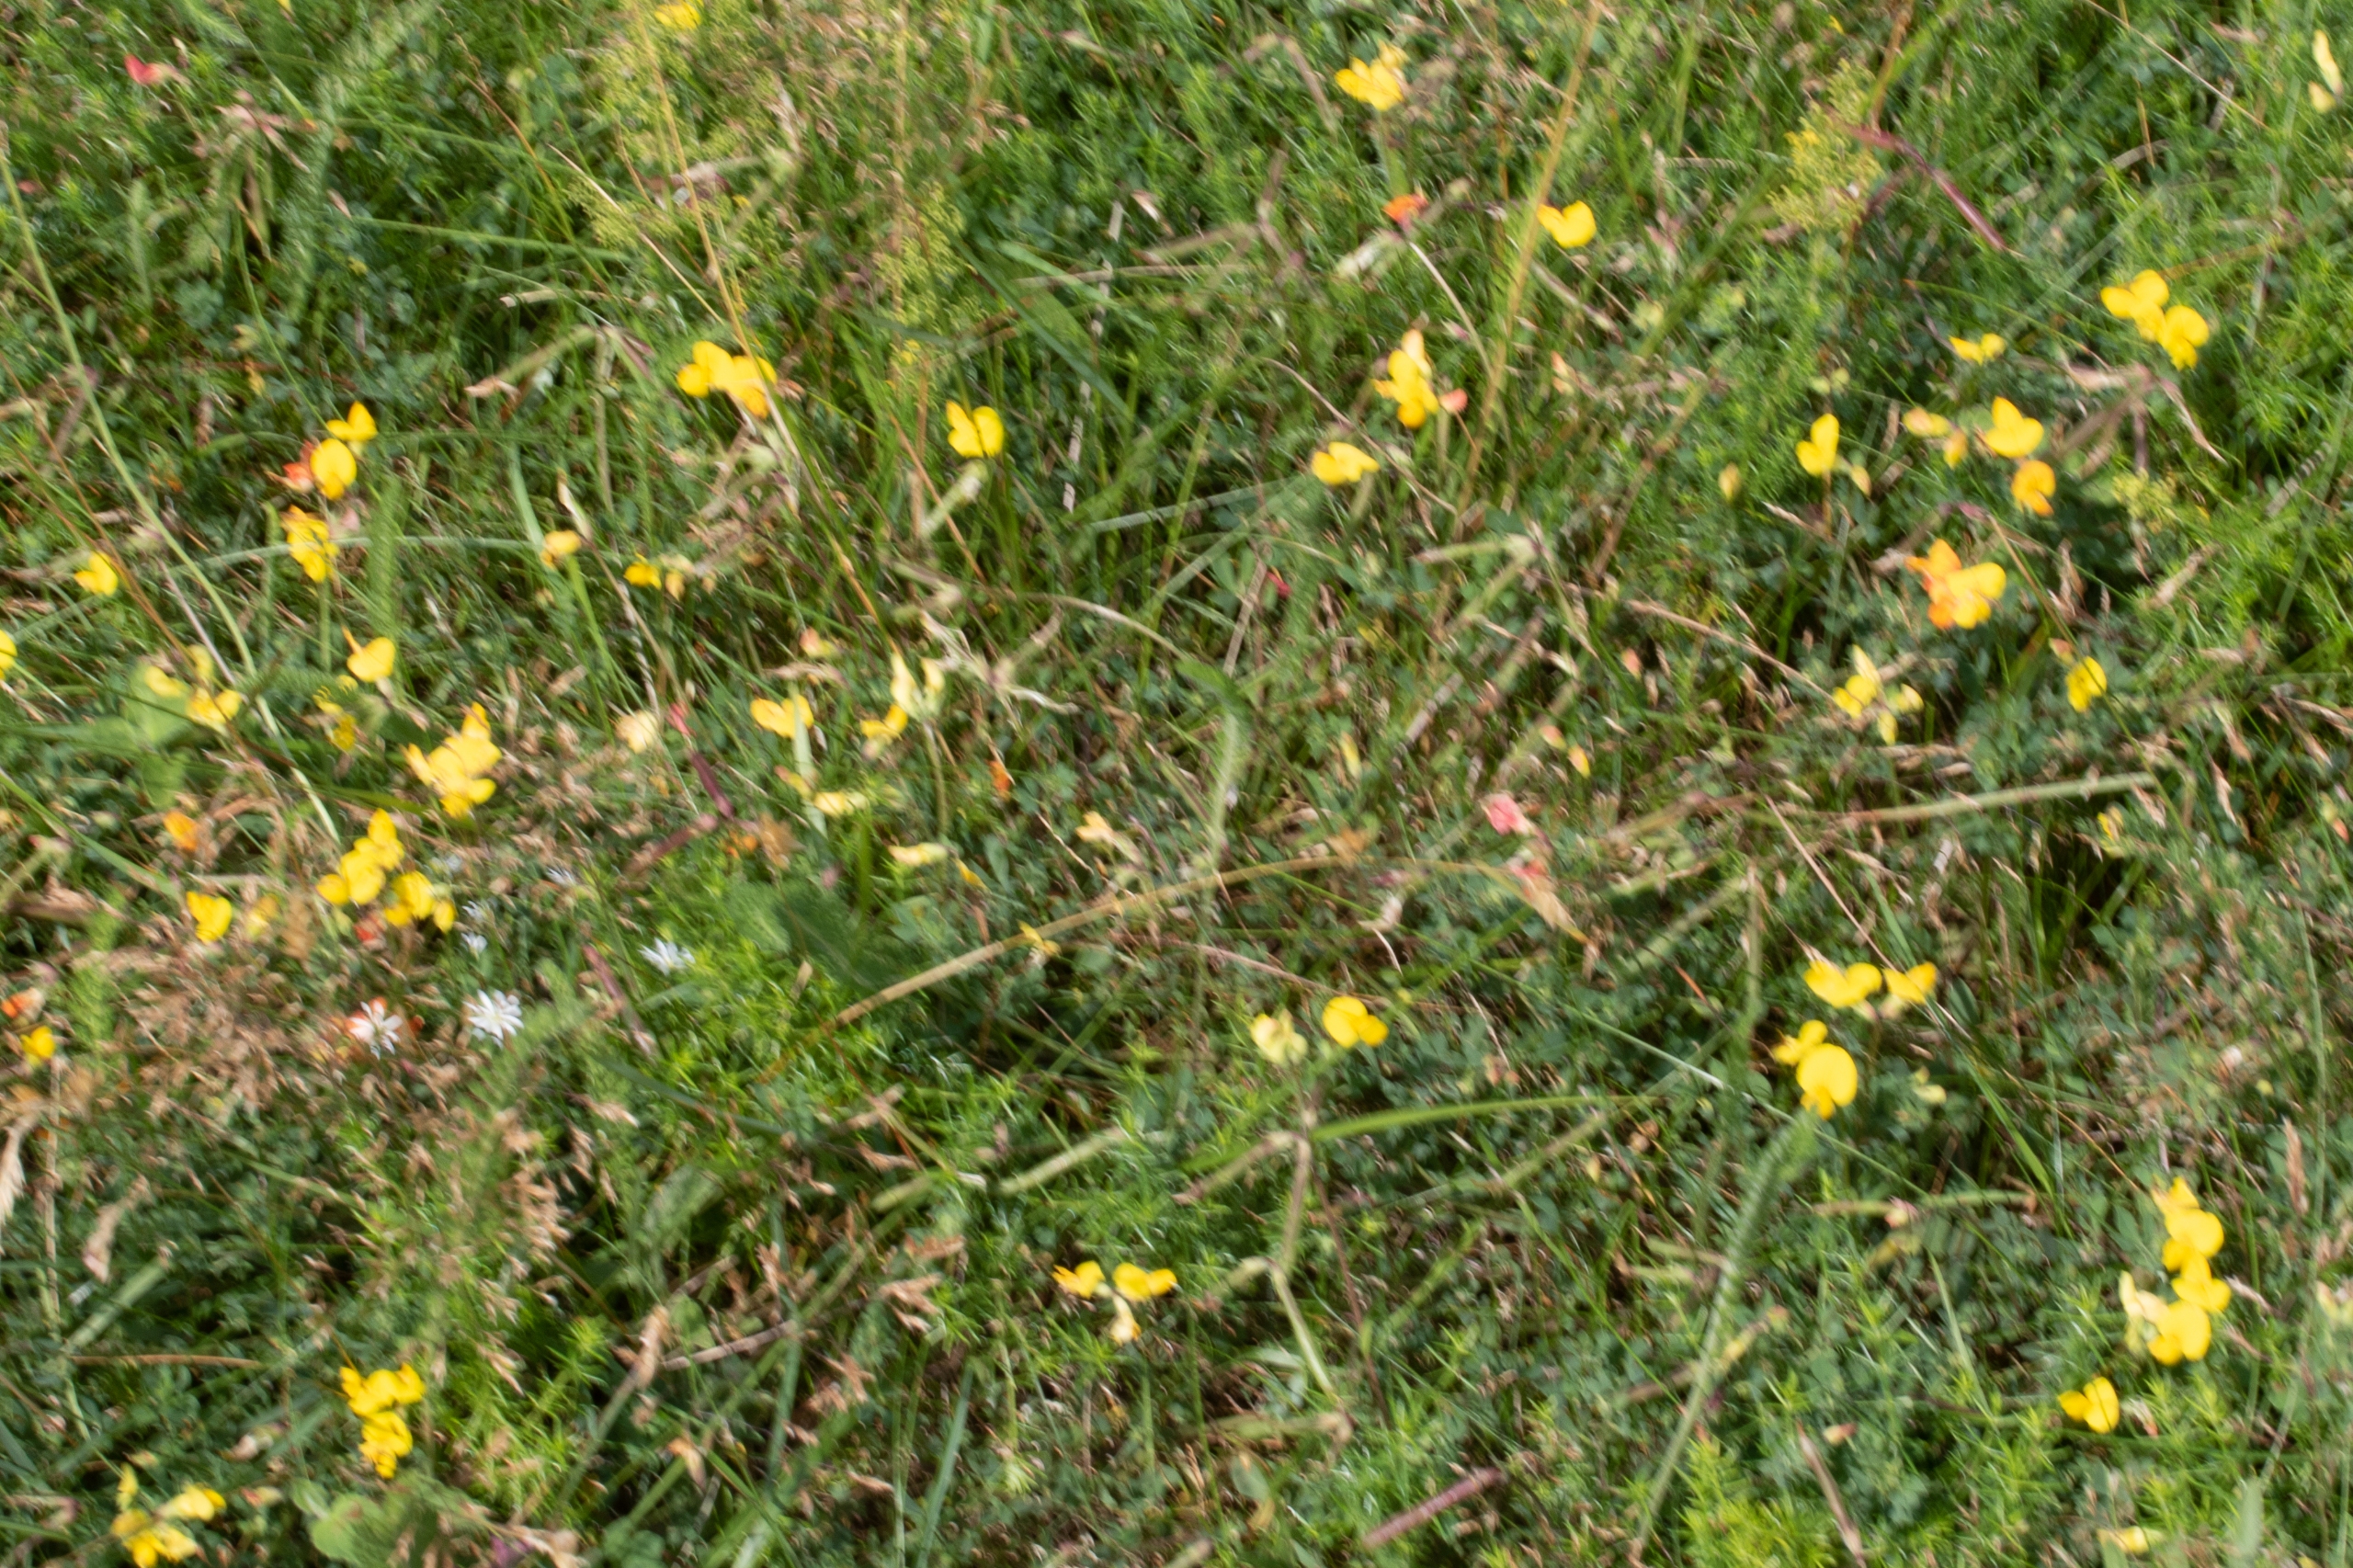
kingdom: Plantae
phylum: Tracheophyta
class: Magnoliopsida
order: Fabales
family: Fabaceae
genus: Lotus
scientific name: Lotus corniculatus
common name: Almindelig kællingetand
